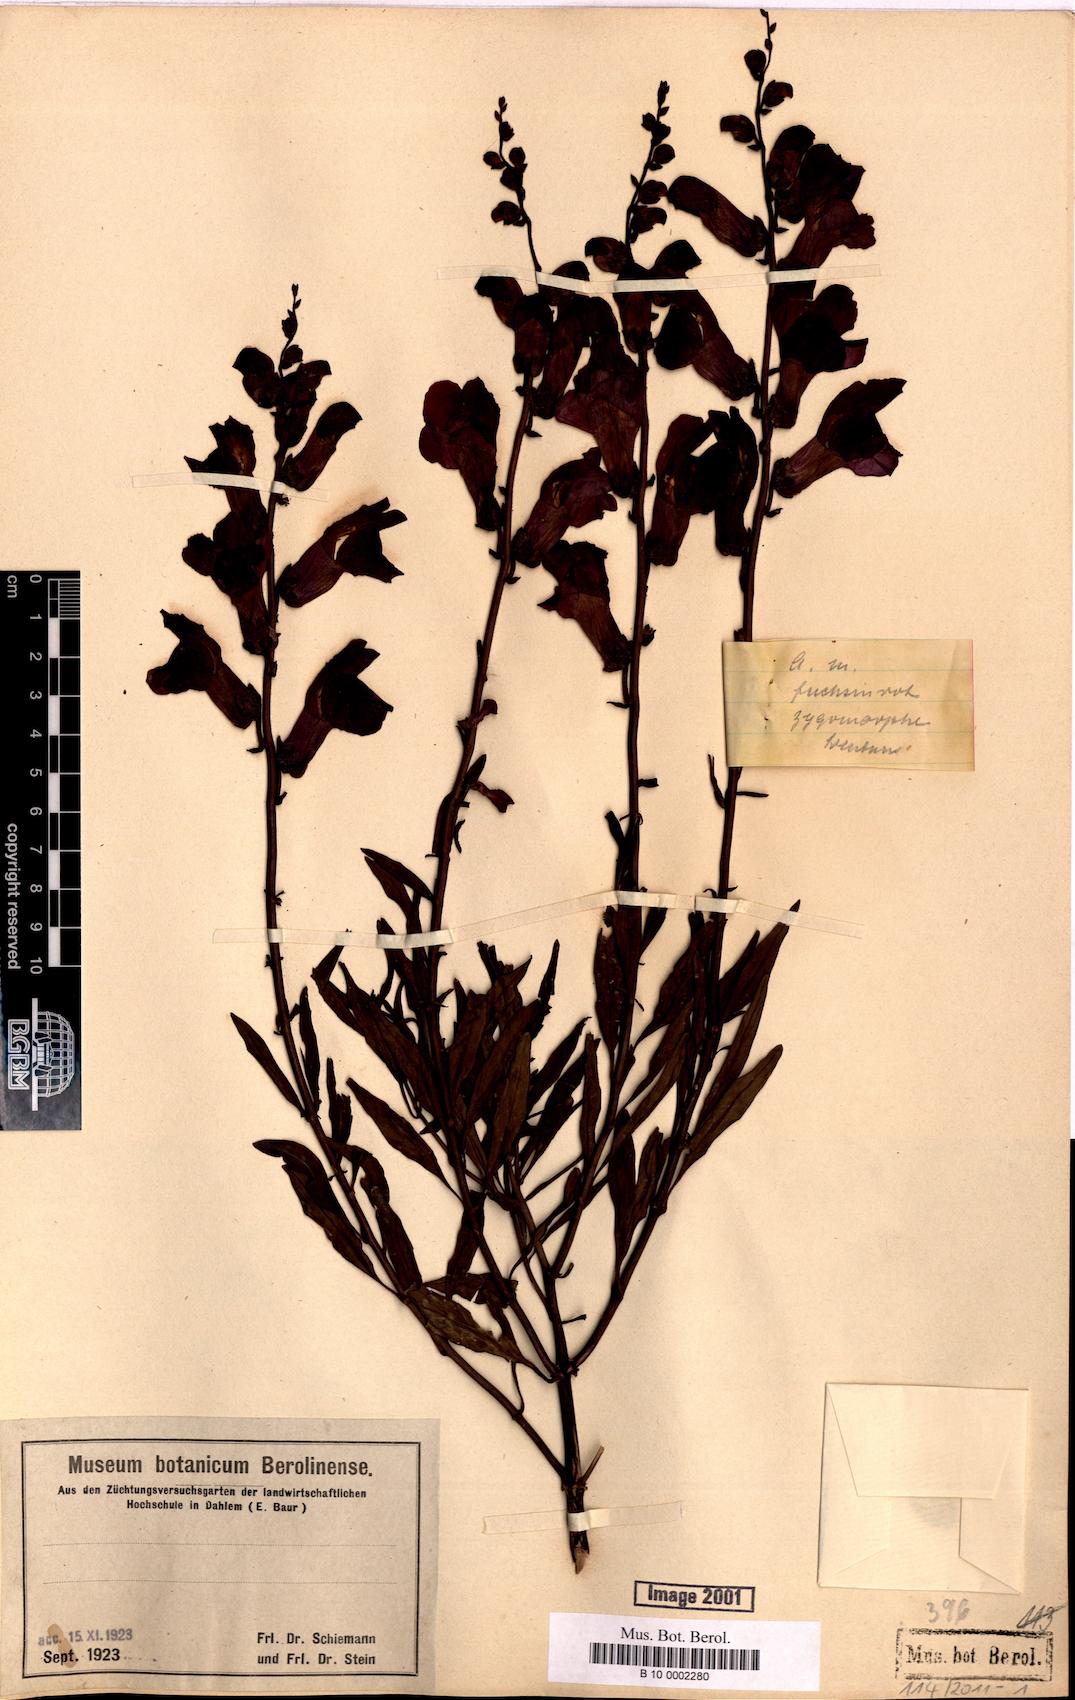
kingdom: Plantae
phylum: Tracheophyta
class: Magnoliopsida
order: Lamiales
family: Plantaginaceae
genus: Antirrhinum
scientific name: Antirrhinum majus
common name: Snapdragon
